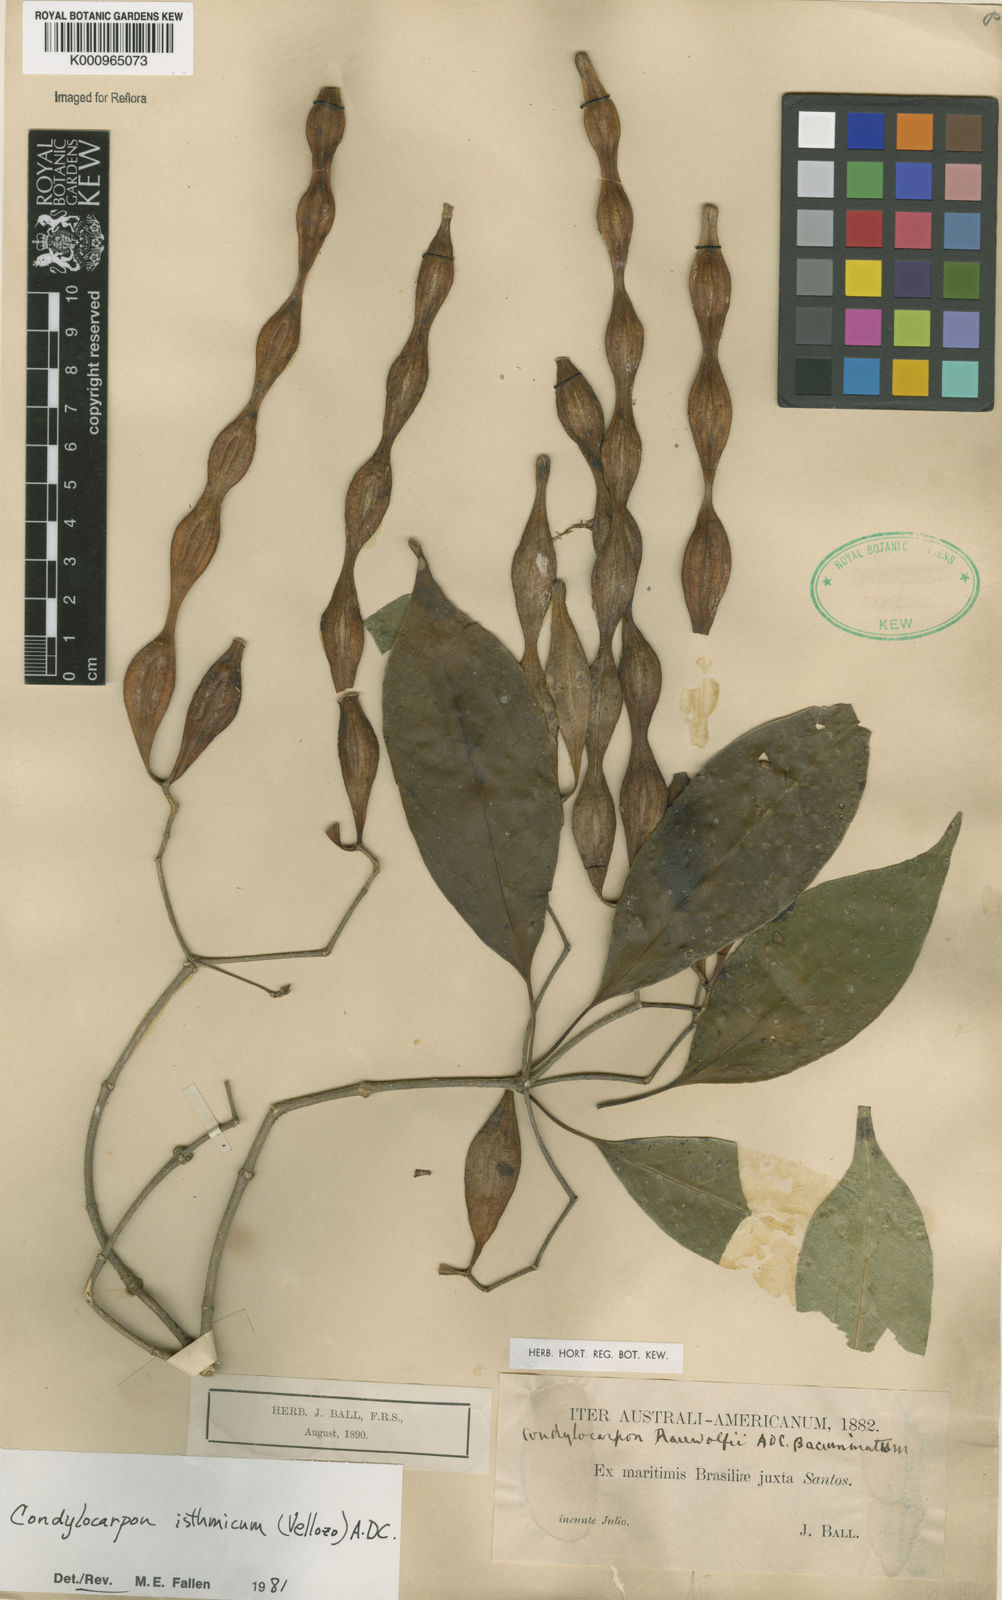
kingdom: Plantae
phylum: Tracheophyta
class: Magnoliopsida
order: Gentianales
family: Apocynaceae
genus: Condylocarpon
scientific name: Condylocarpon isthmicum
